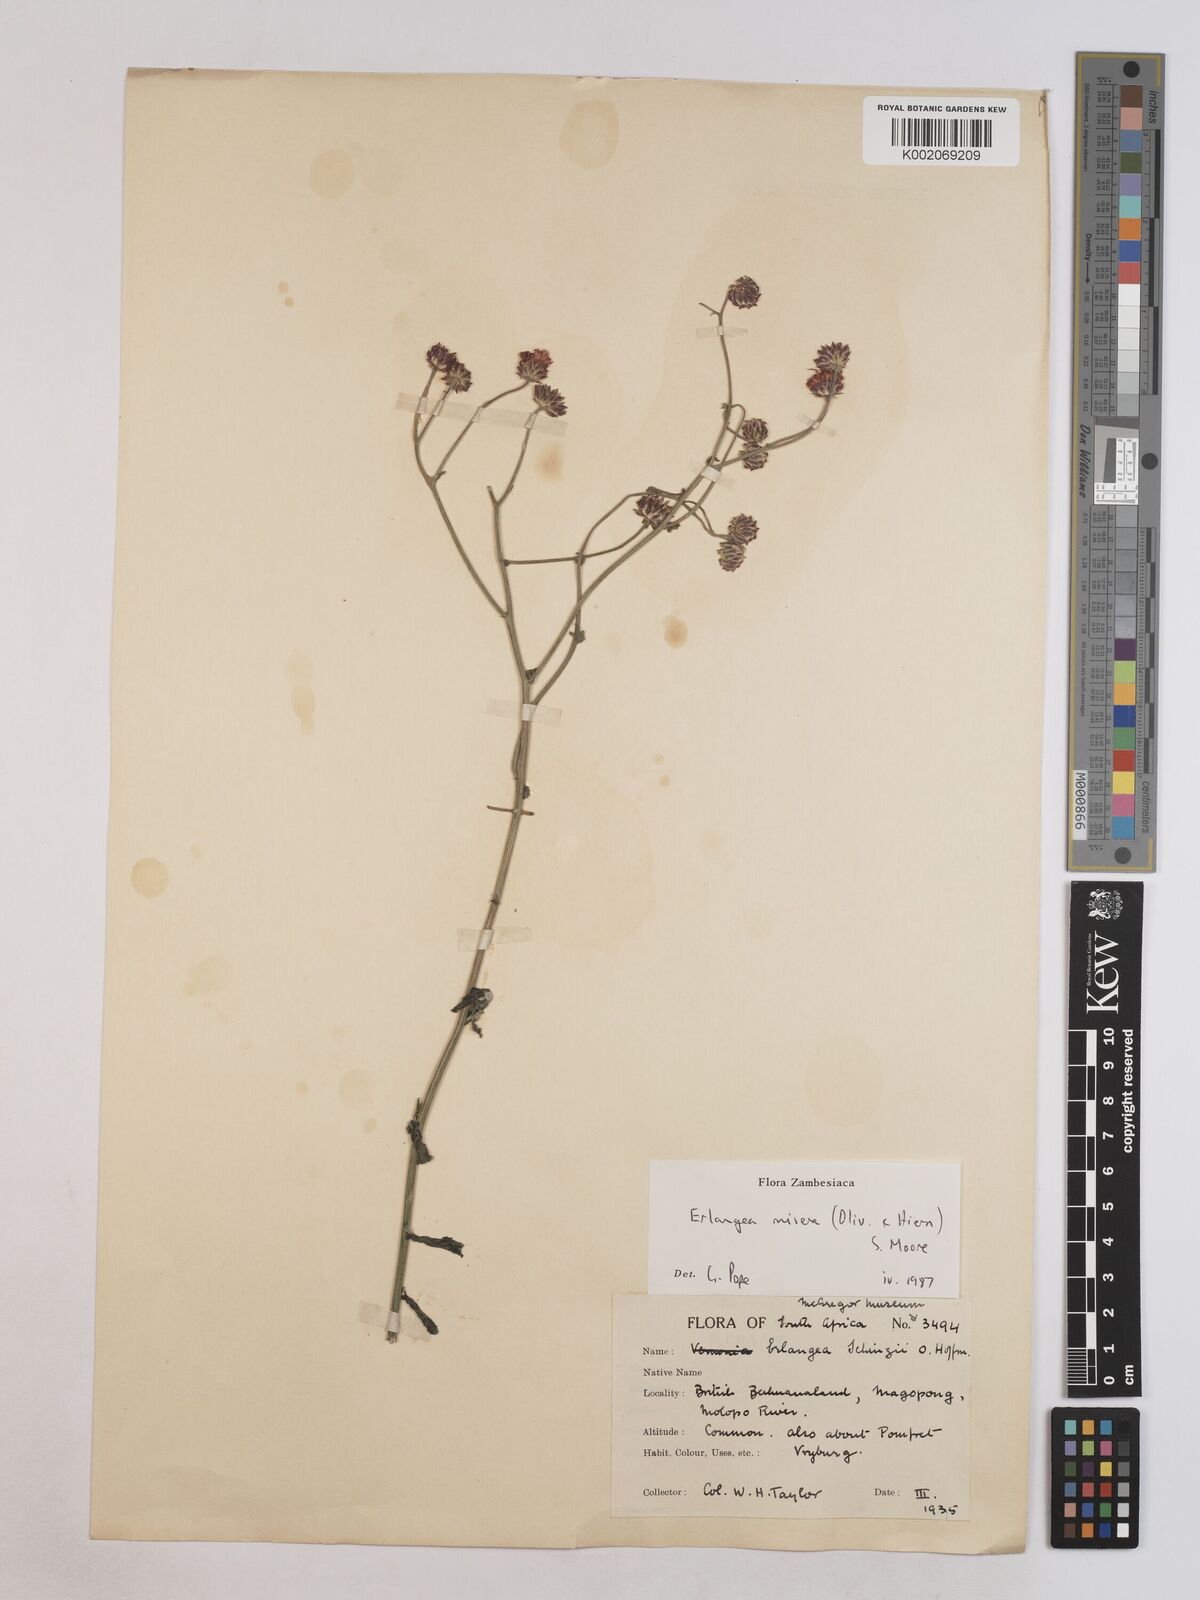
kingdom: Plantae
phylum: Tracheophyta
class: Magnoliopsida
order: Asterales
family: Asteraceae
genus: Erlangea
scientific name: Erlangea misera
